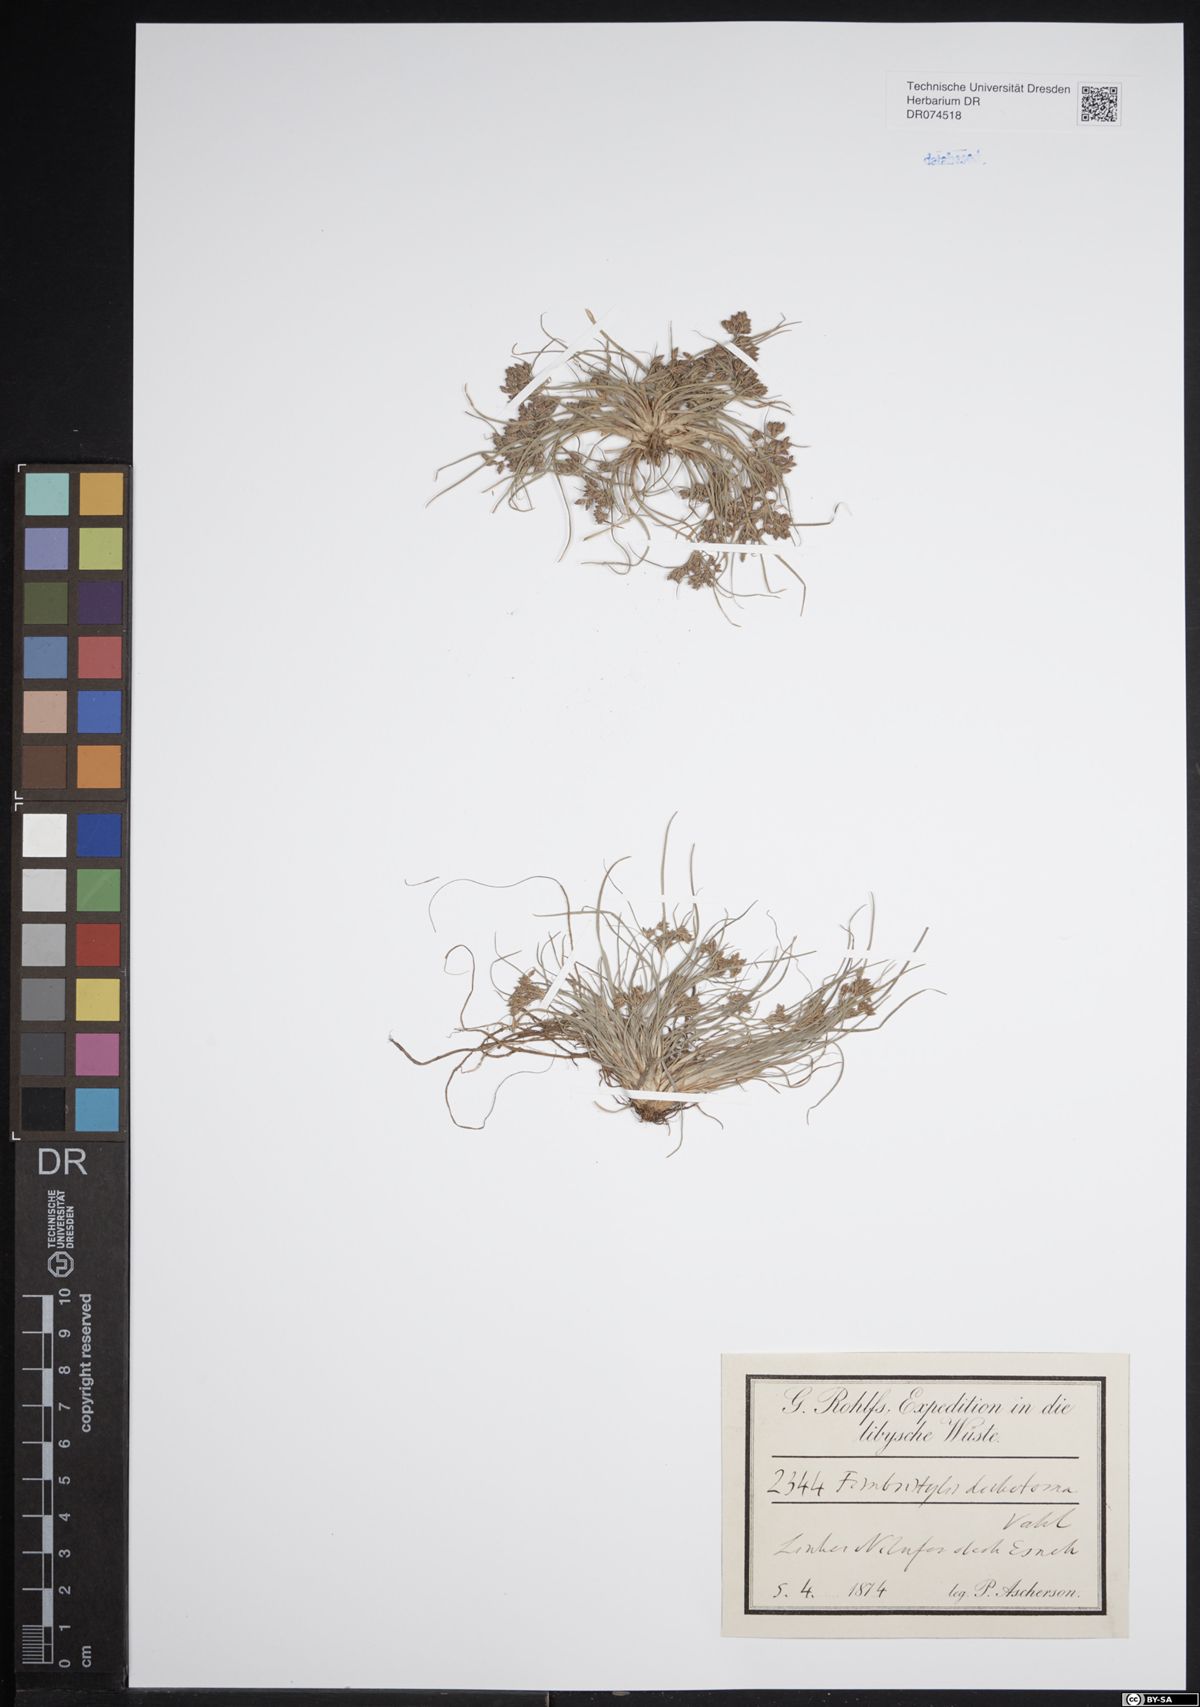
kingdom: Plantae
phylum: Tracheophyta
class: Liliopsida
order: Poales
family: Cyperaceae
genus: Fimbristylis
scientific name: Fimbristylis dichotoma
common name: Forked fimbry
